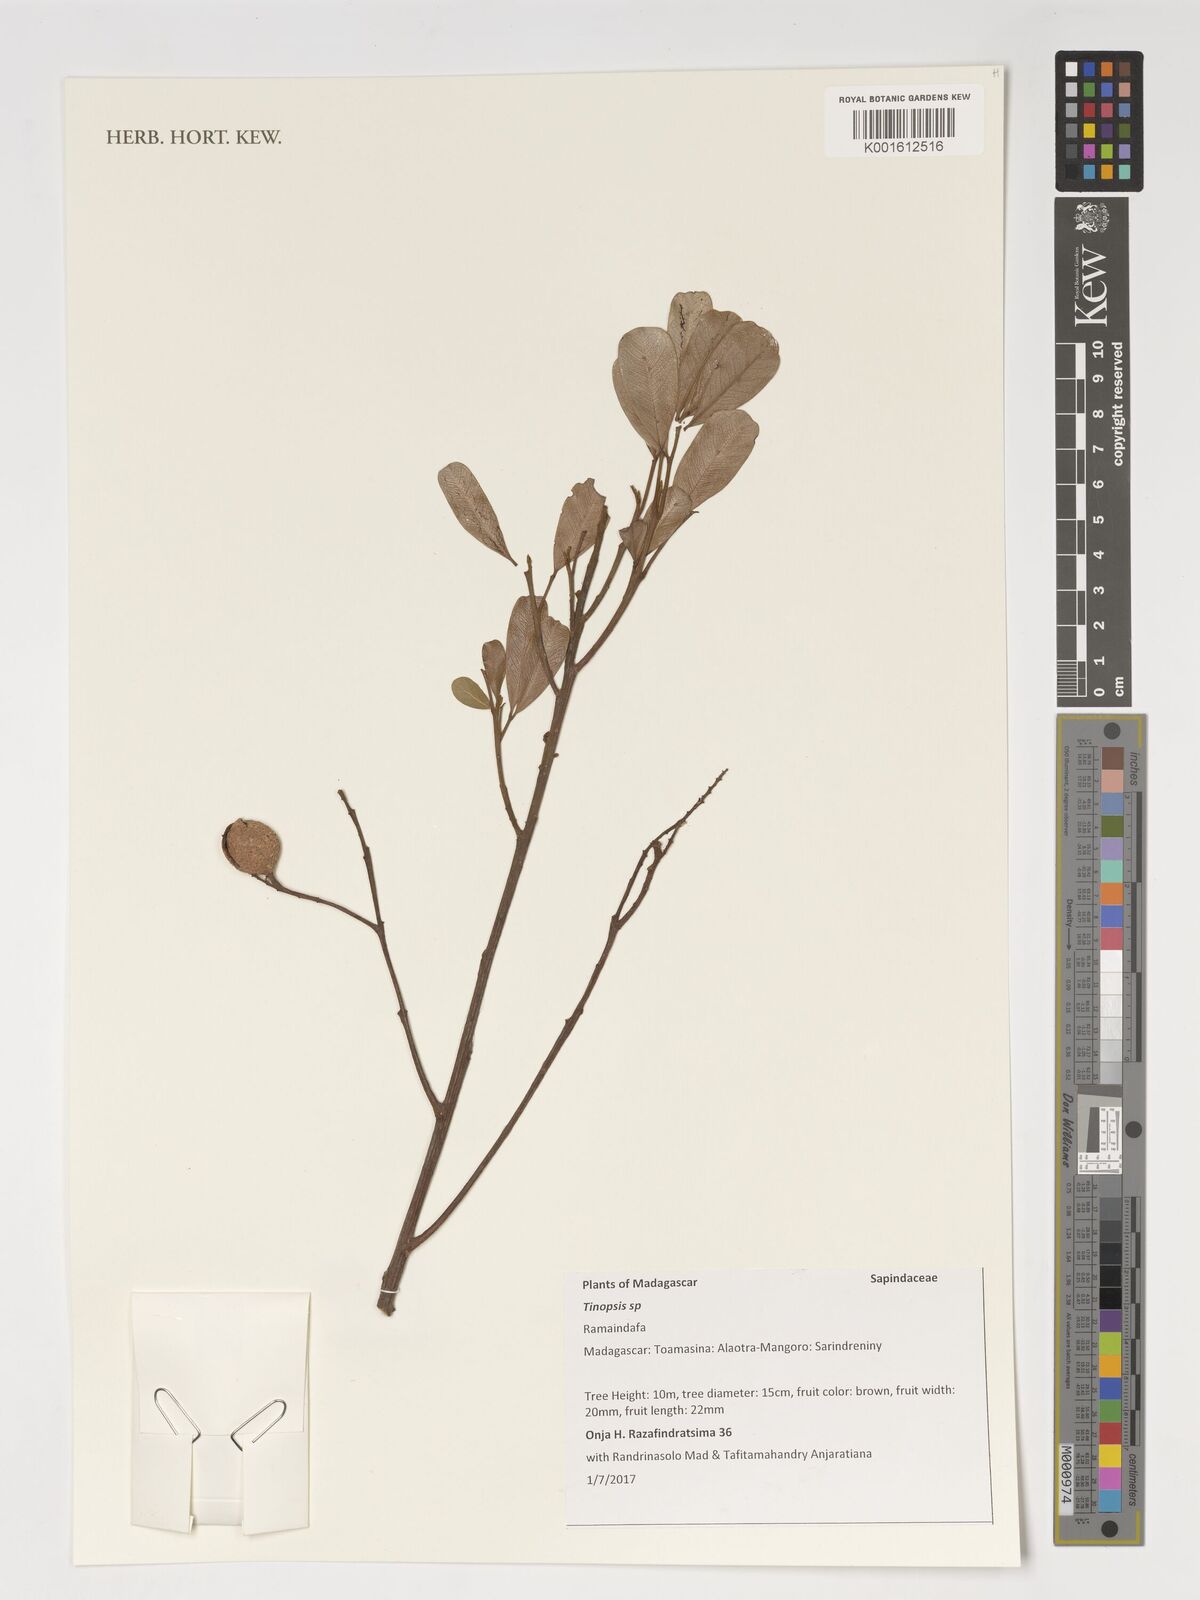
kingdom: Plantae
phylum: Tracheophyta
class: Magnoliopsida
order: Sapindales
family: Sapindaceae
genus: Tina
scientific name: Tina
